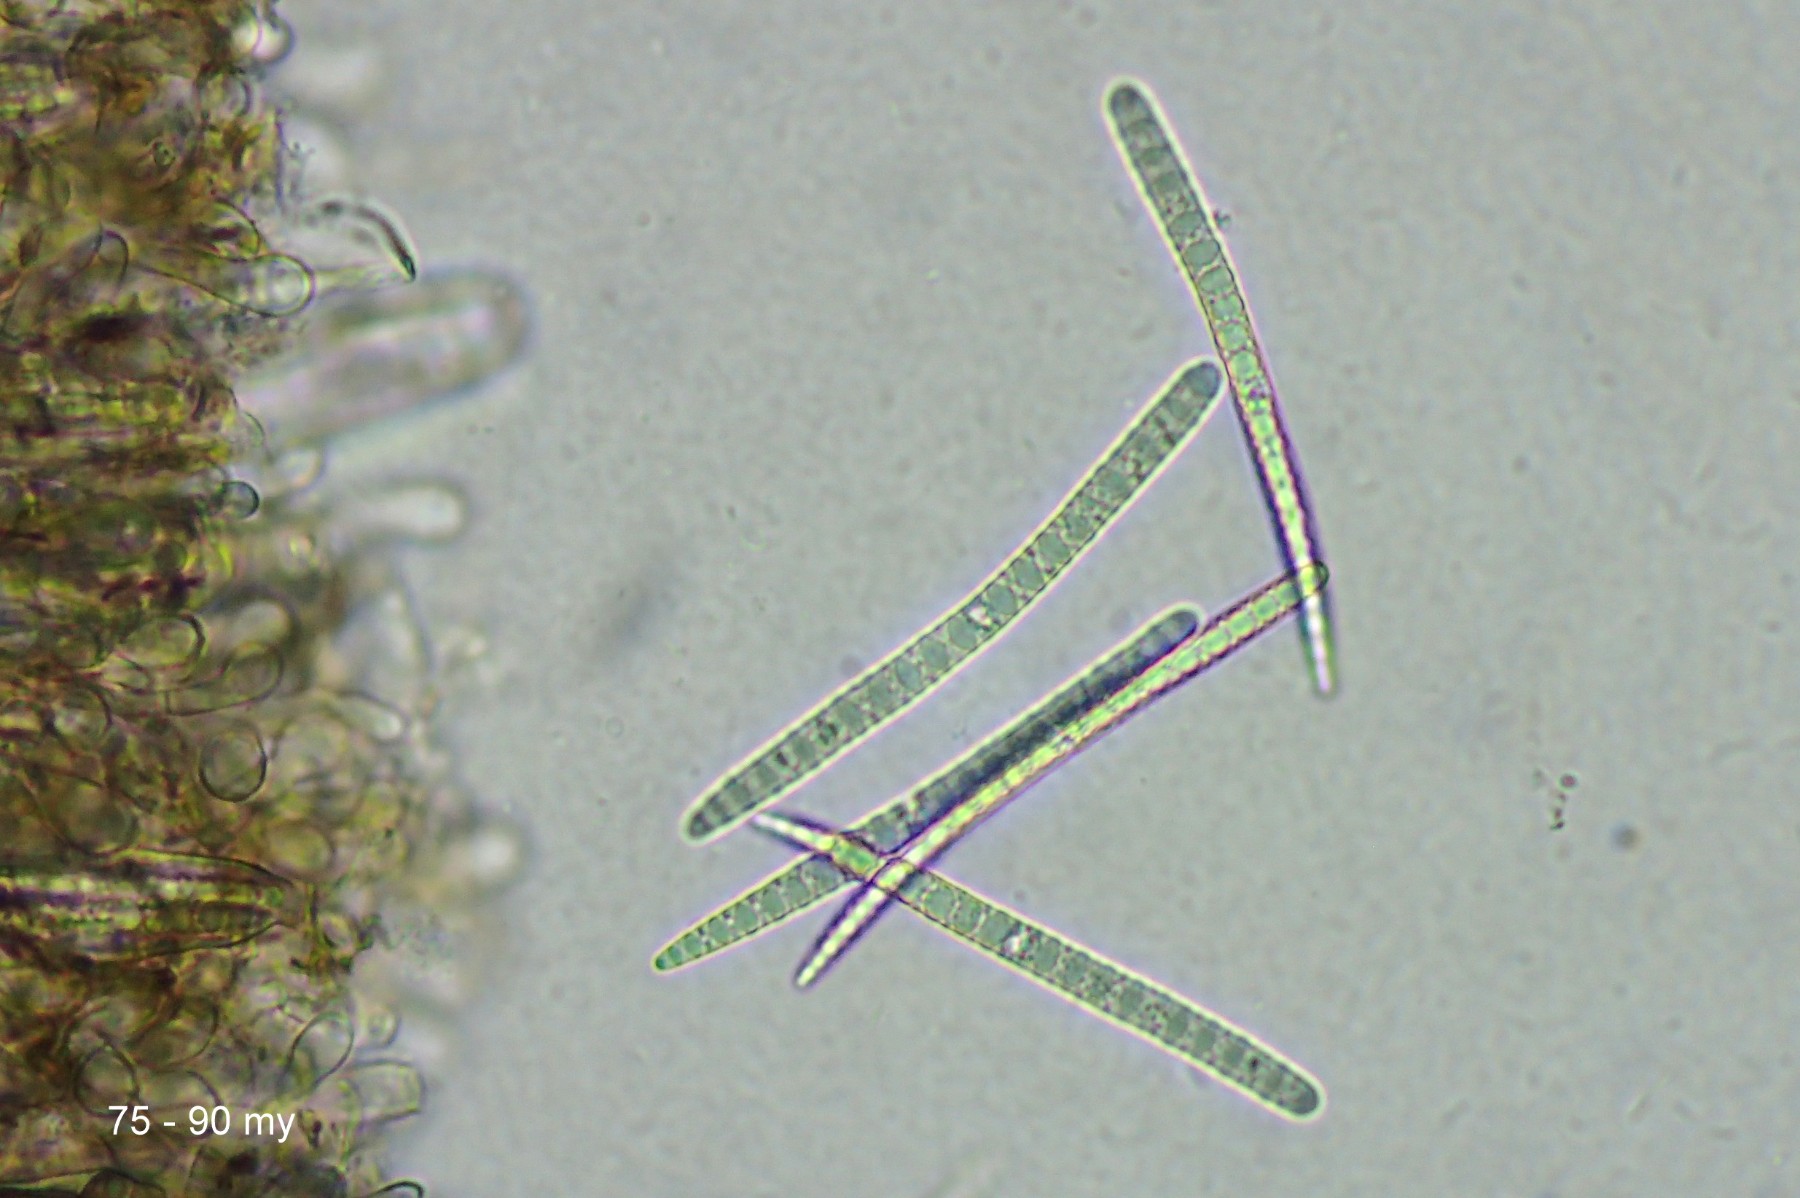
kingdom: Fungi
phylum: Ascomycota
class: Geoglossomycetes
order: Geoglossales
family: Geoglossaceae
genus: Geoglossum
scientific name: Geoglossum fallax
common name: småskællet jordtunge
